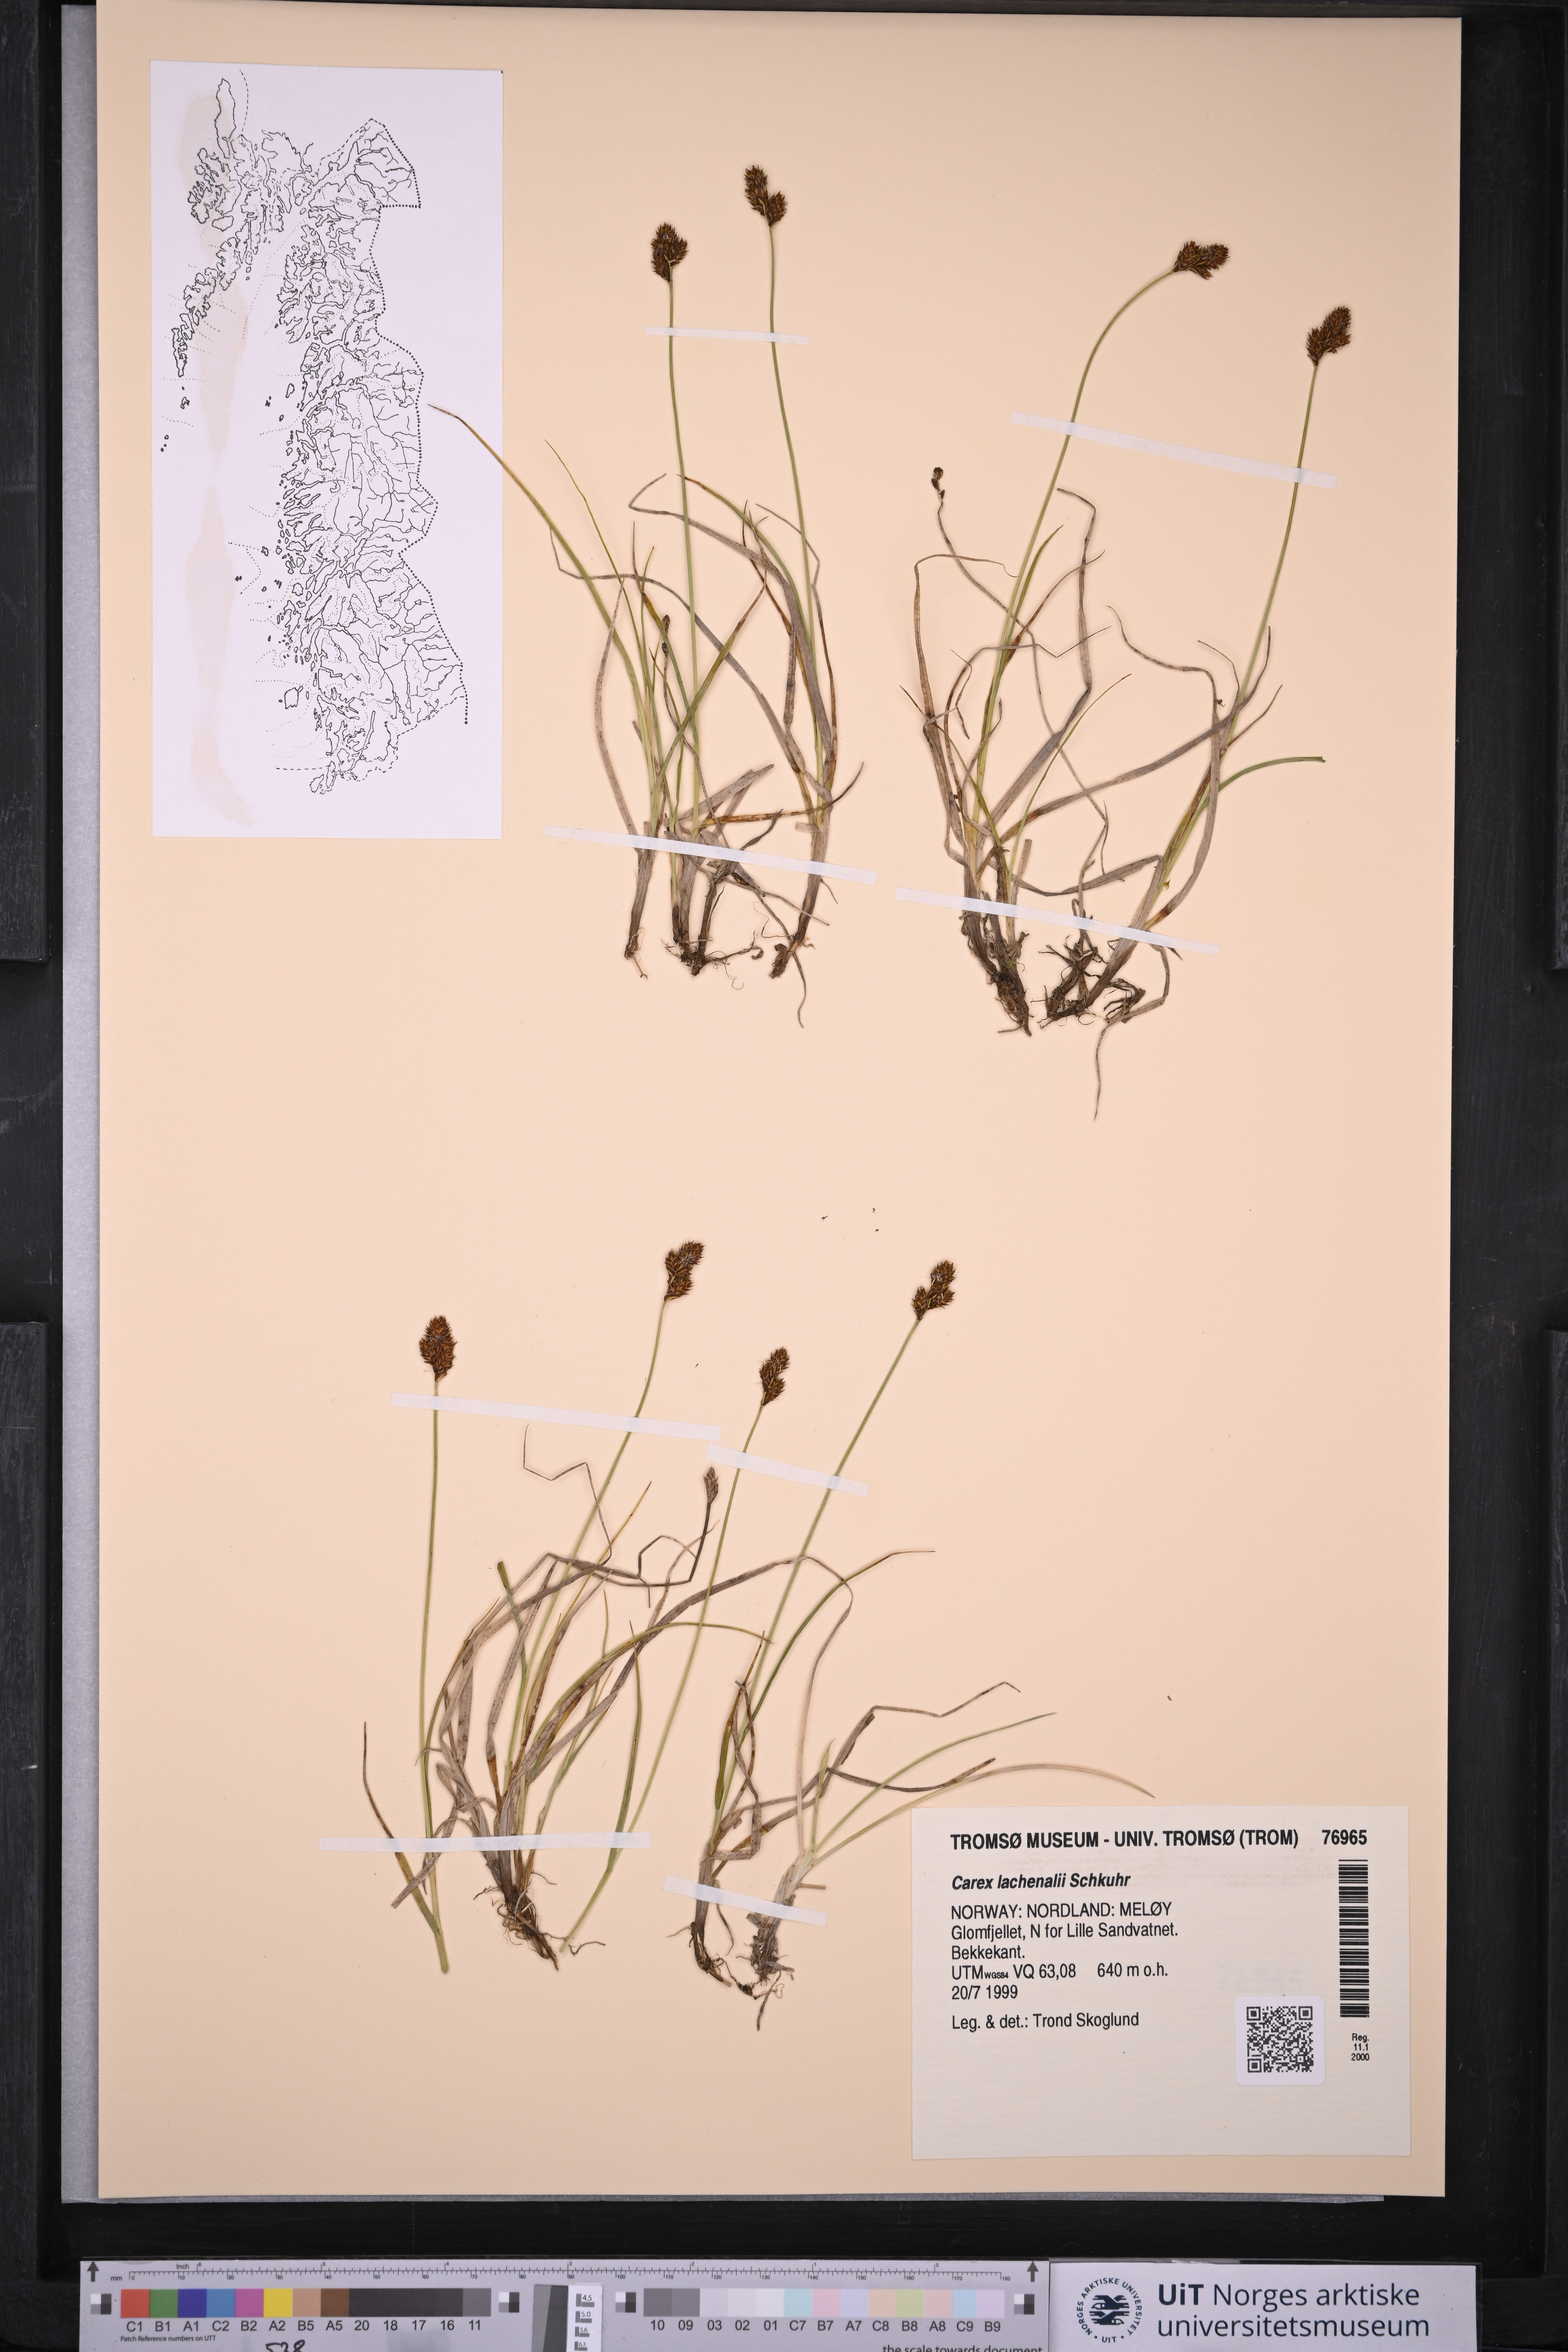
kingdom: Plantae
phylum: Tracheophyta
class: Liliopsida
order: Poales
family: Cyperaceae
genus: Carex
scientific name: Carex lachenalii
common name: Hare's-foot sedge
